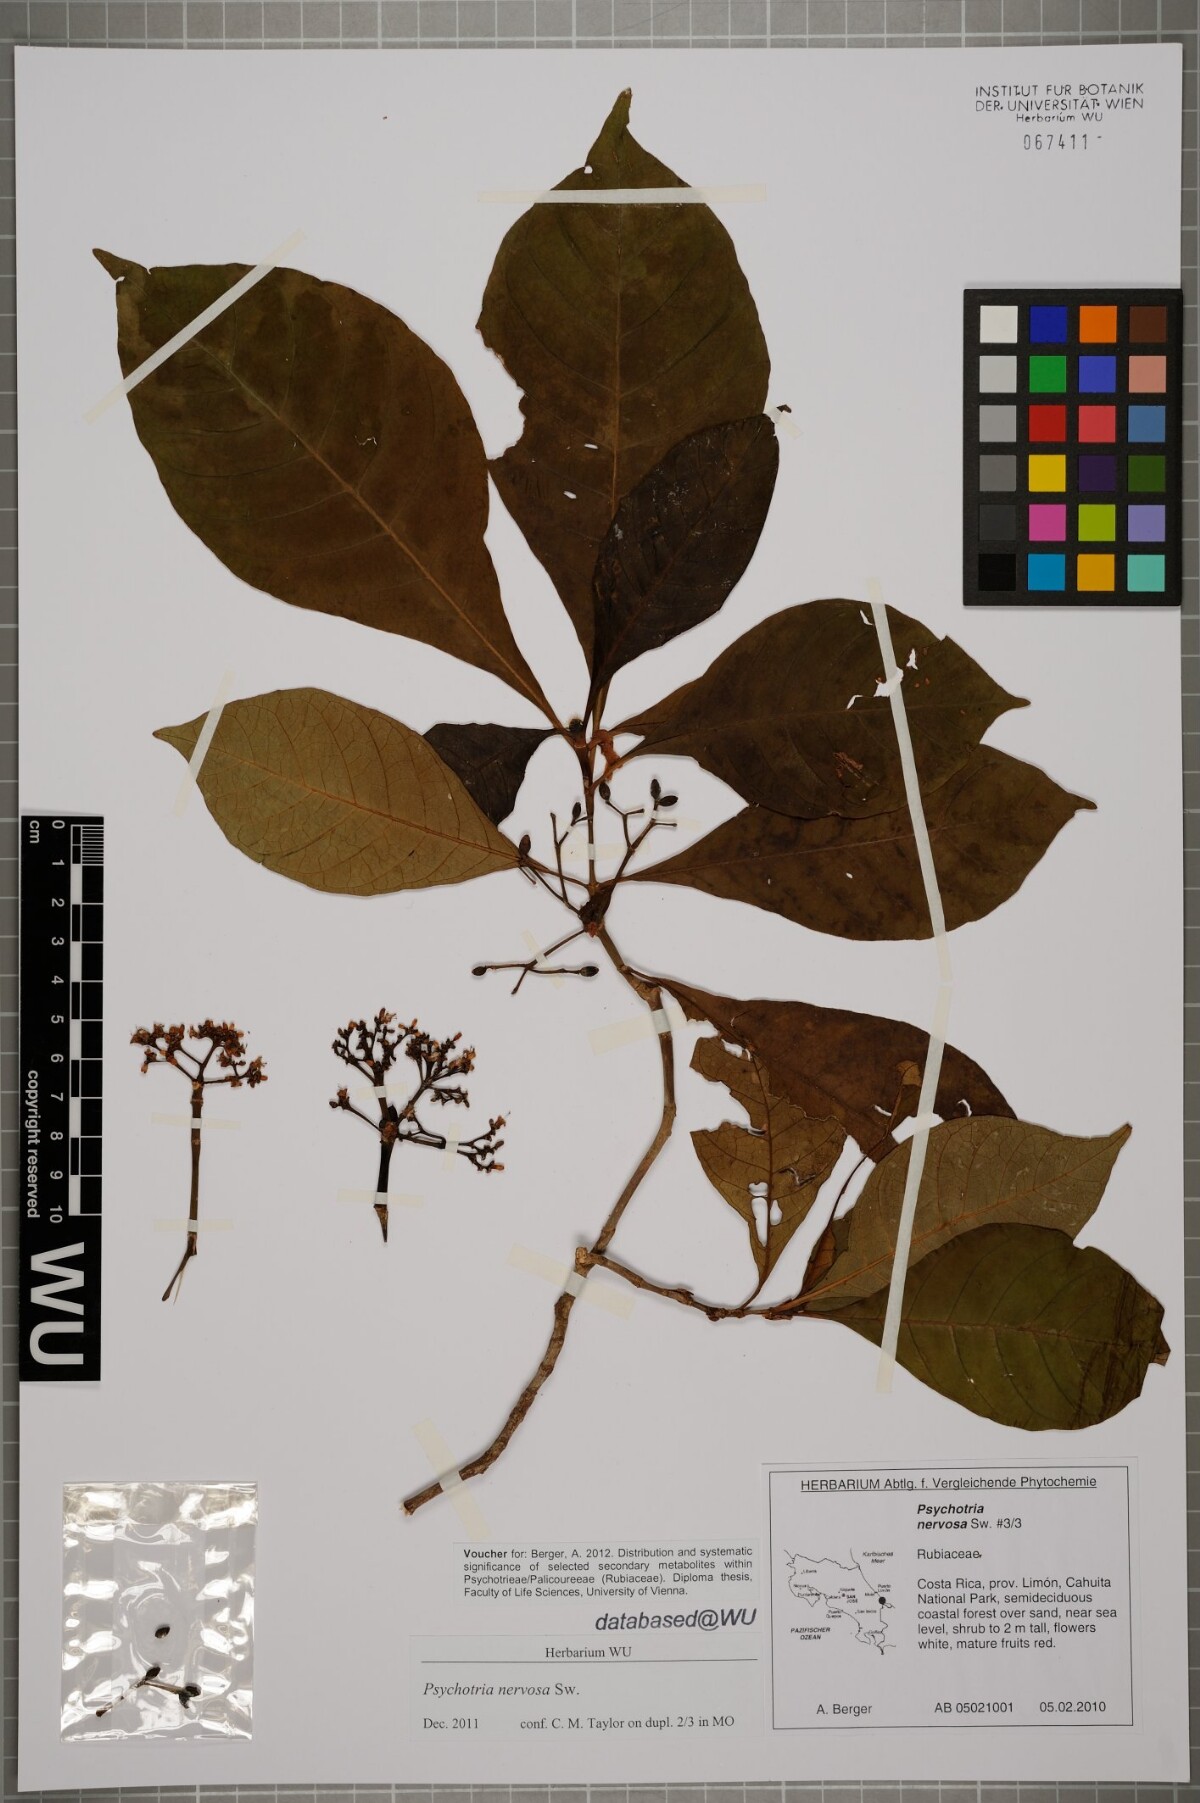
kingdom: Plantae
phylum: Tracheophyta
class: Magnoliopsida
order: Gentianales
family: Rubiaceae
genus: Psychotria
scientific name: Psychotria nervosa
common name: Bastard cankerberry
